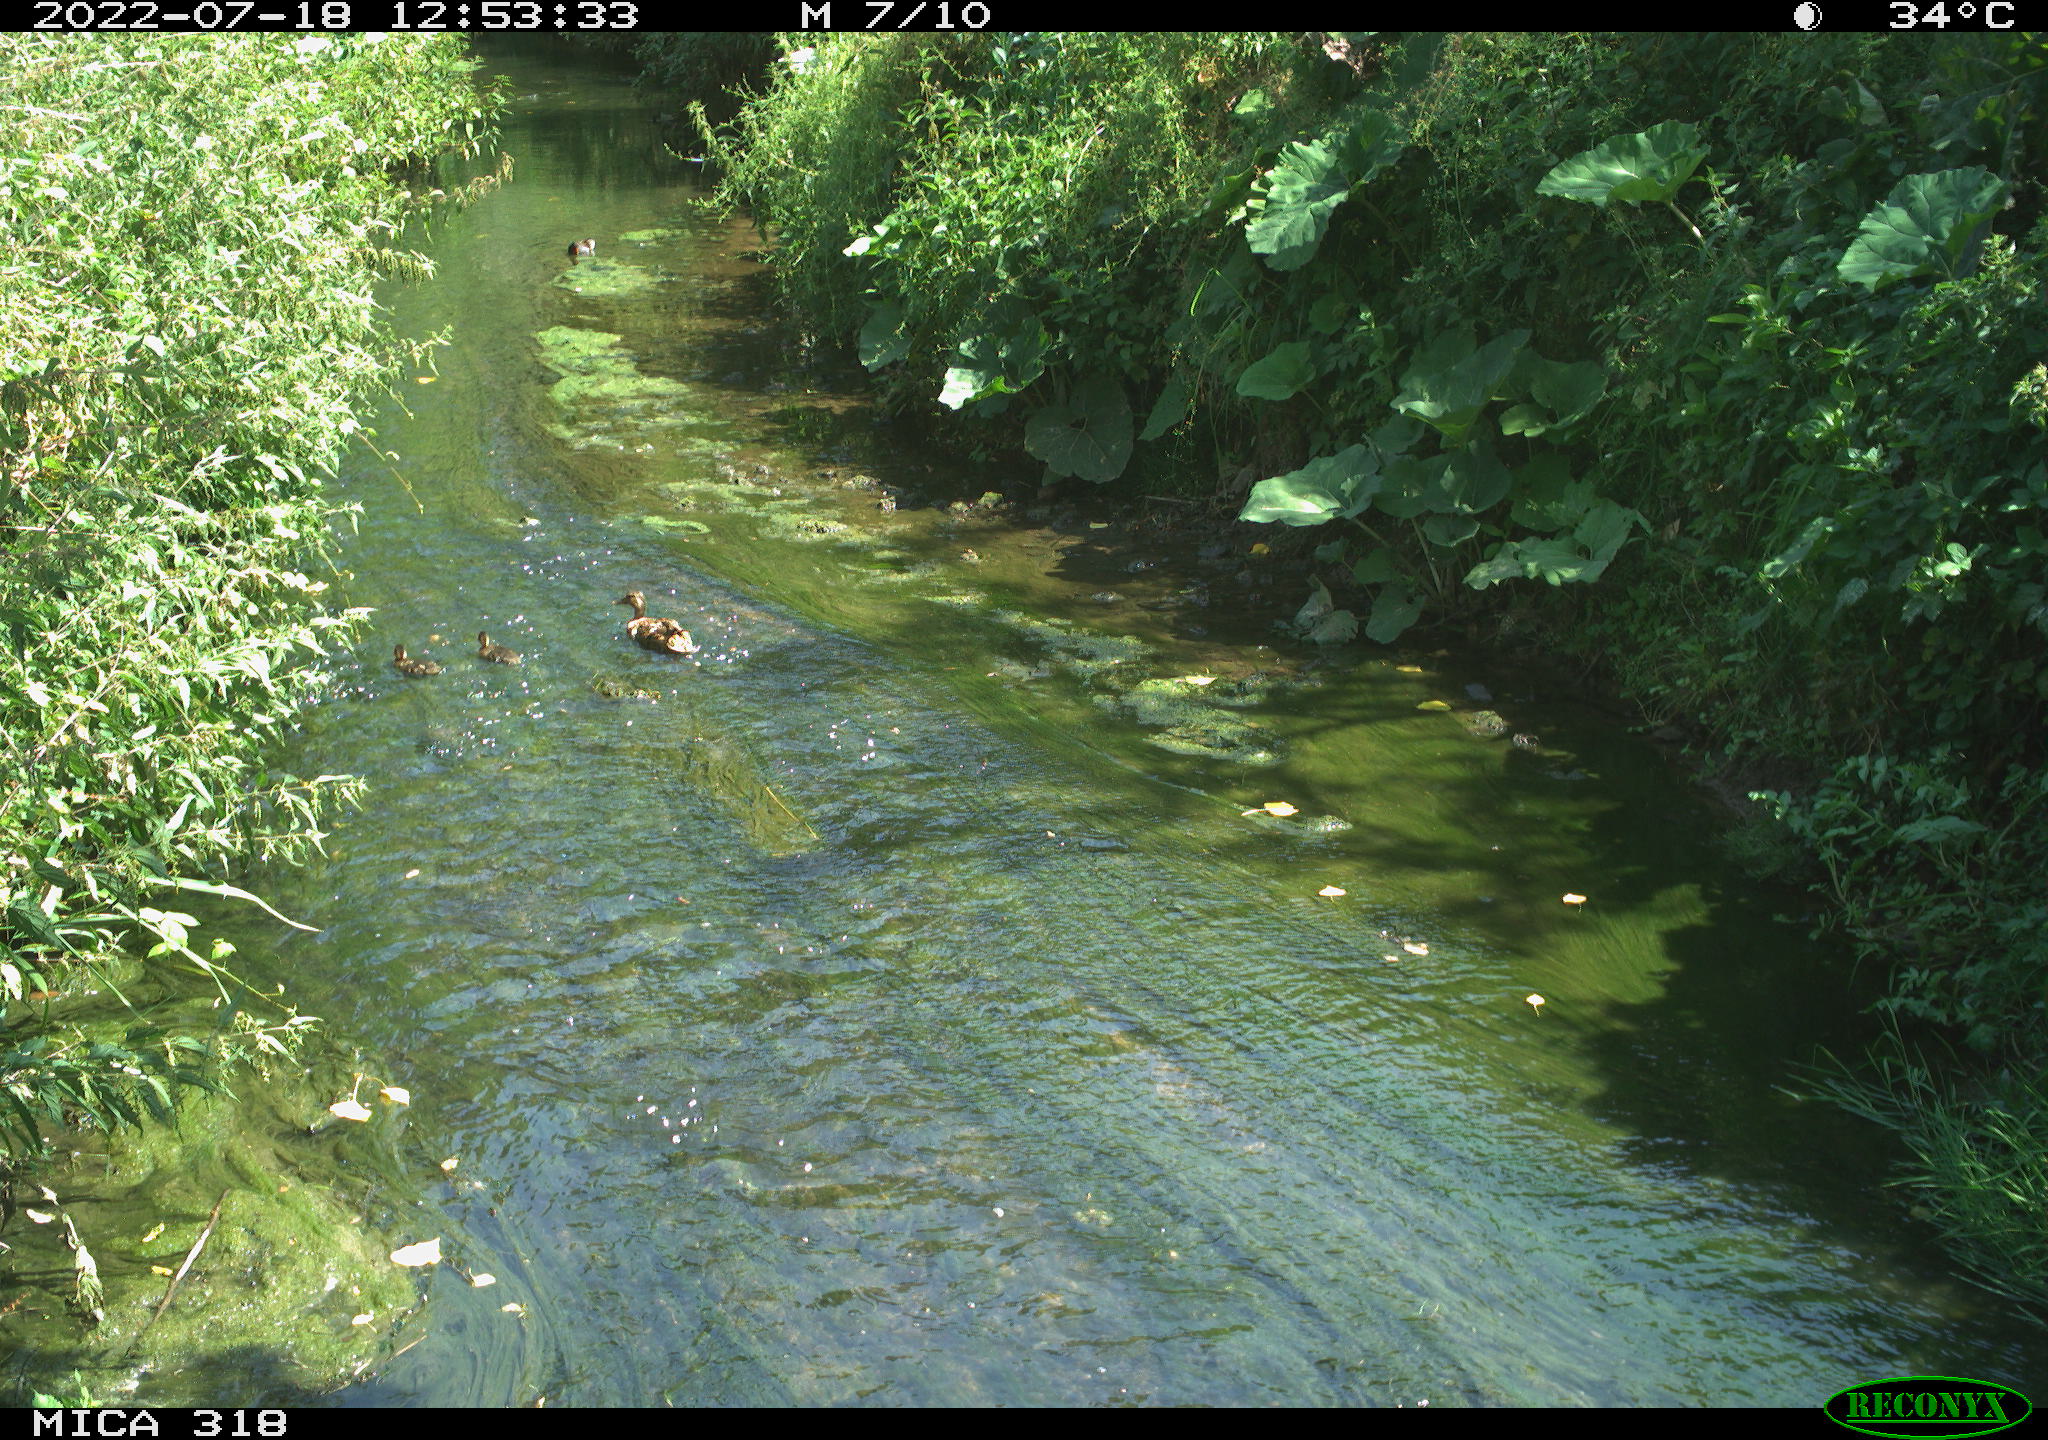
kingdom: Animalia
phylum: Chordata
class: Aves
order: Gruiformes
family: Rallidae
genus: Gallinula
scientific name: Gallinula chloropus
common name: Common moorhen
